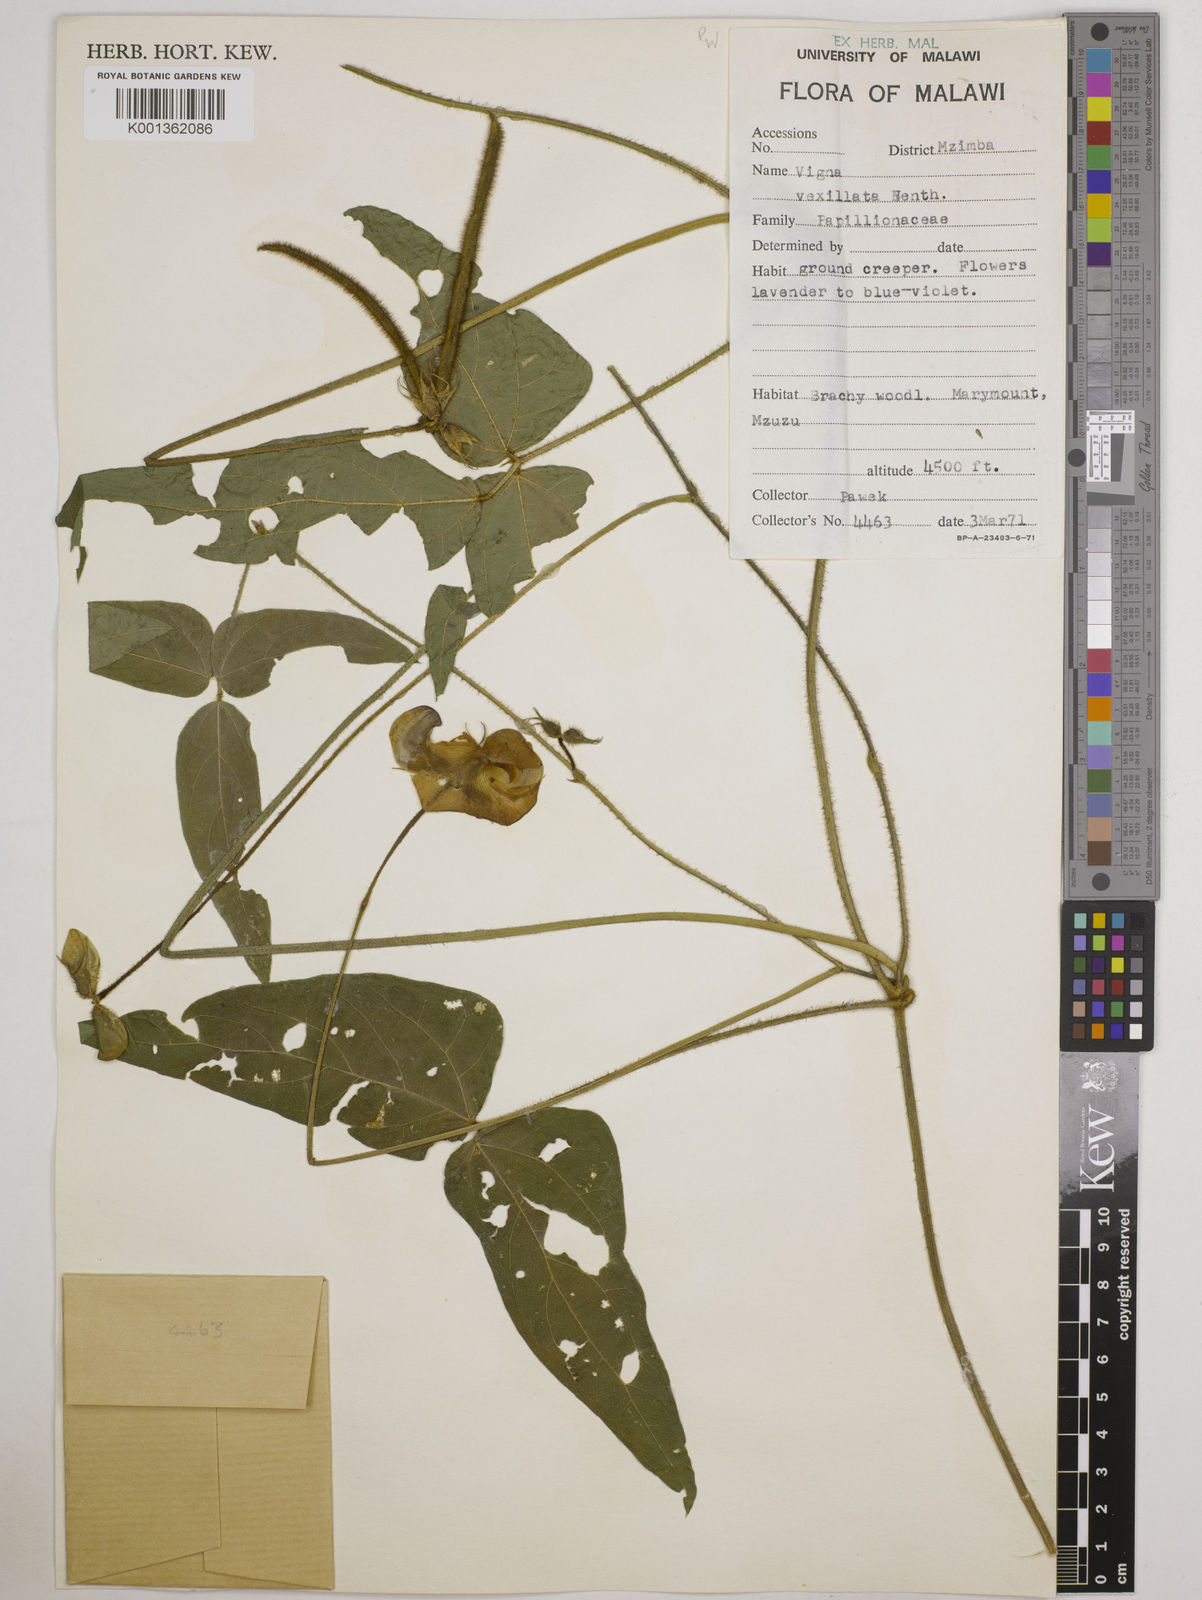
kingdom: Plantae
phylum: Tracheophyta
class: Magnoliopsida
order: Fabales
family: Fabaceae
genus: Vigna
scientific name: Vigna vexillata
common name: Zombi pea
